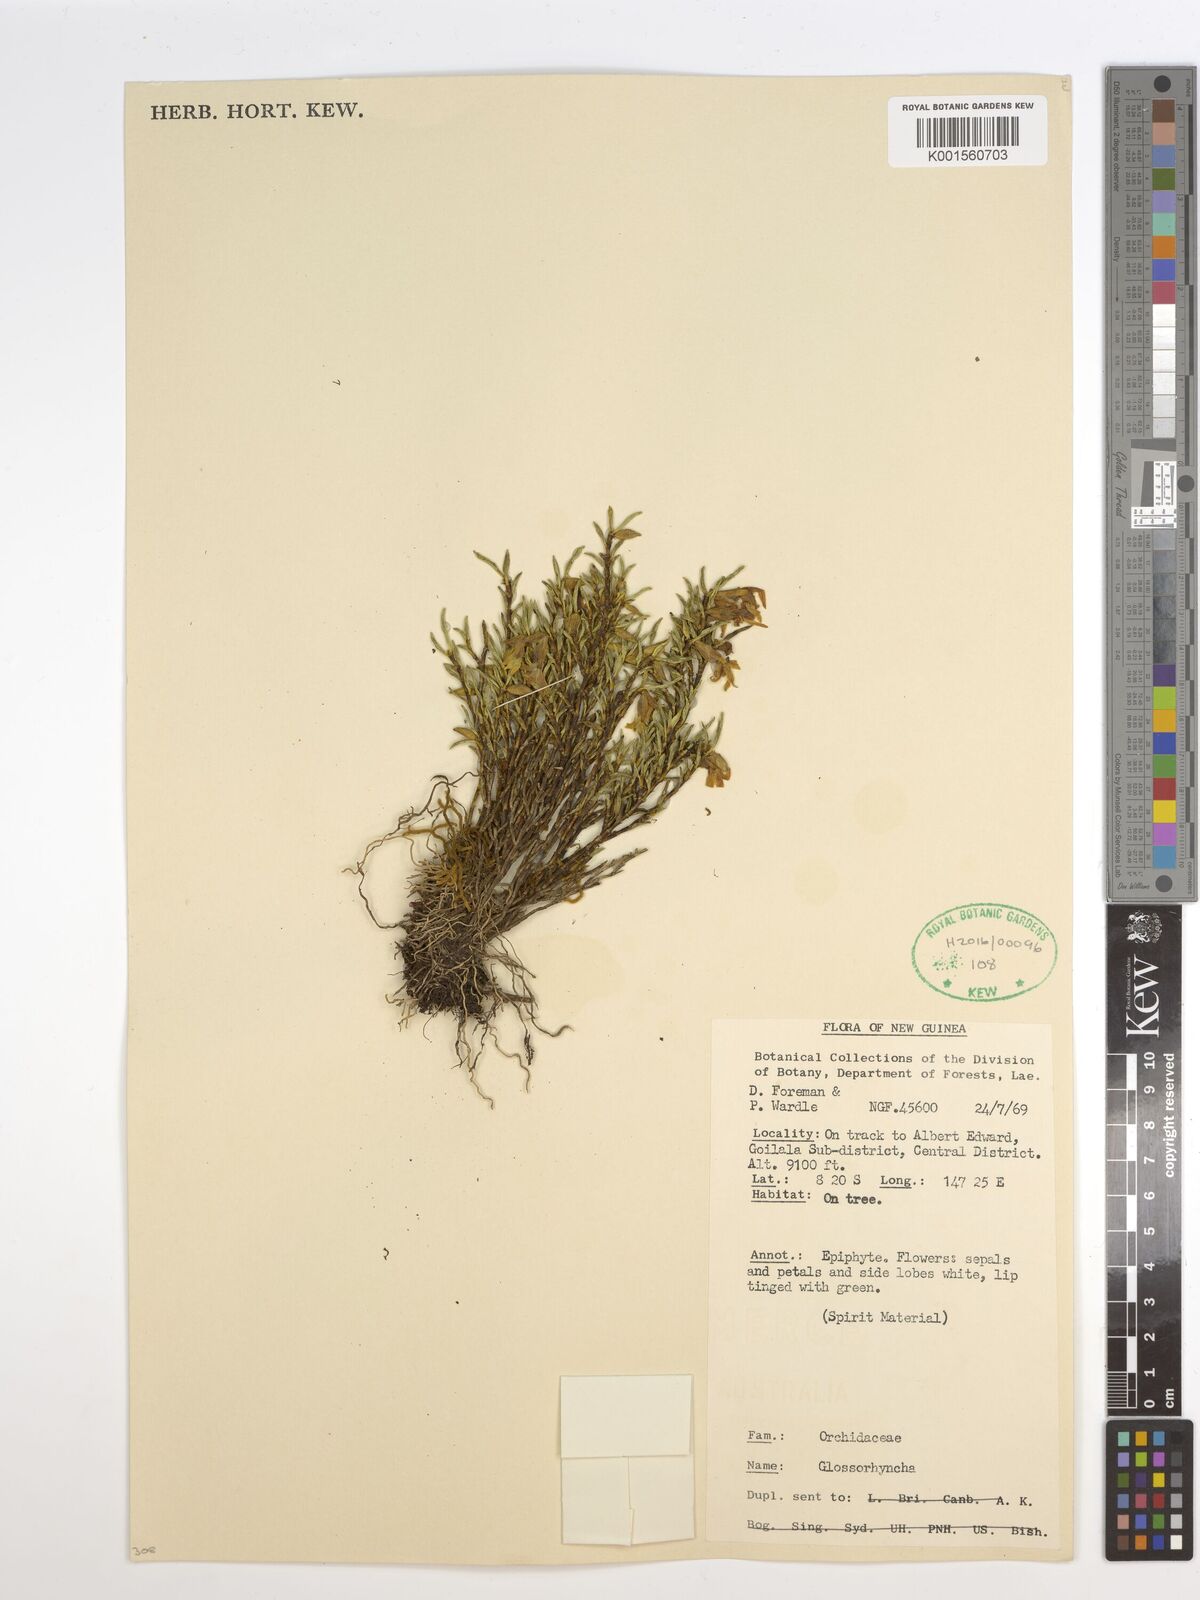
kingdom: Plantae
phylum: Tracheophyta
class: Liliopsida
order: Asparagales
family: Orchidaceae
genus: Glomera
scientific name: Glomera
